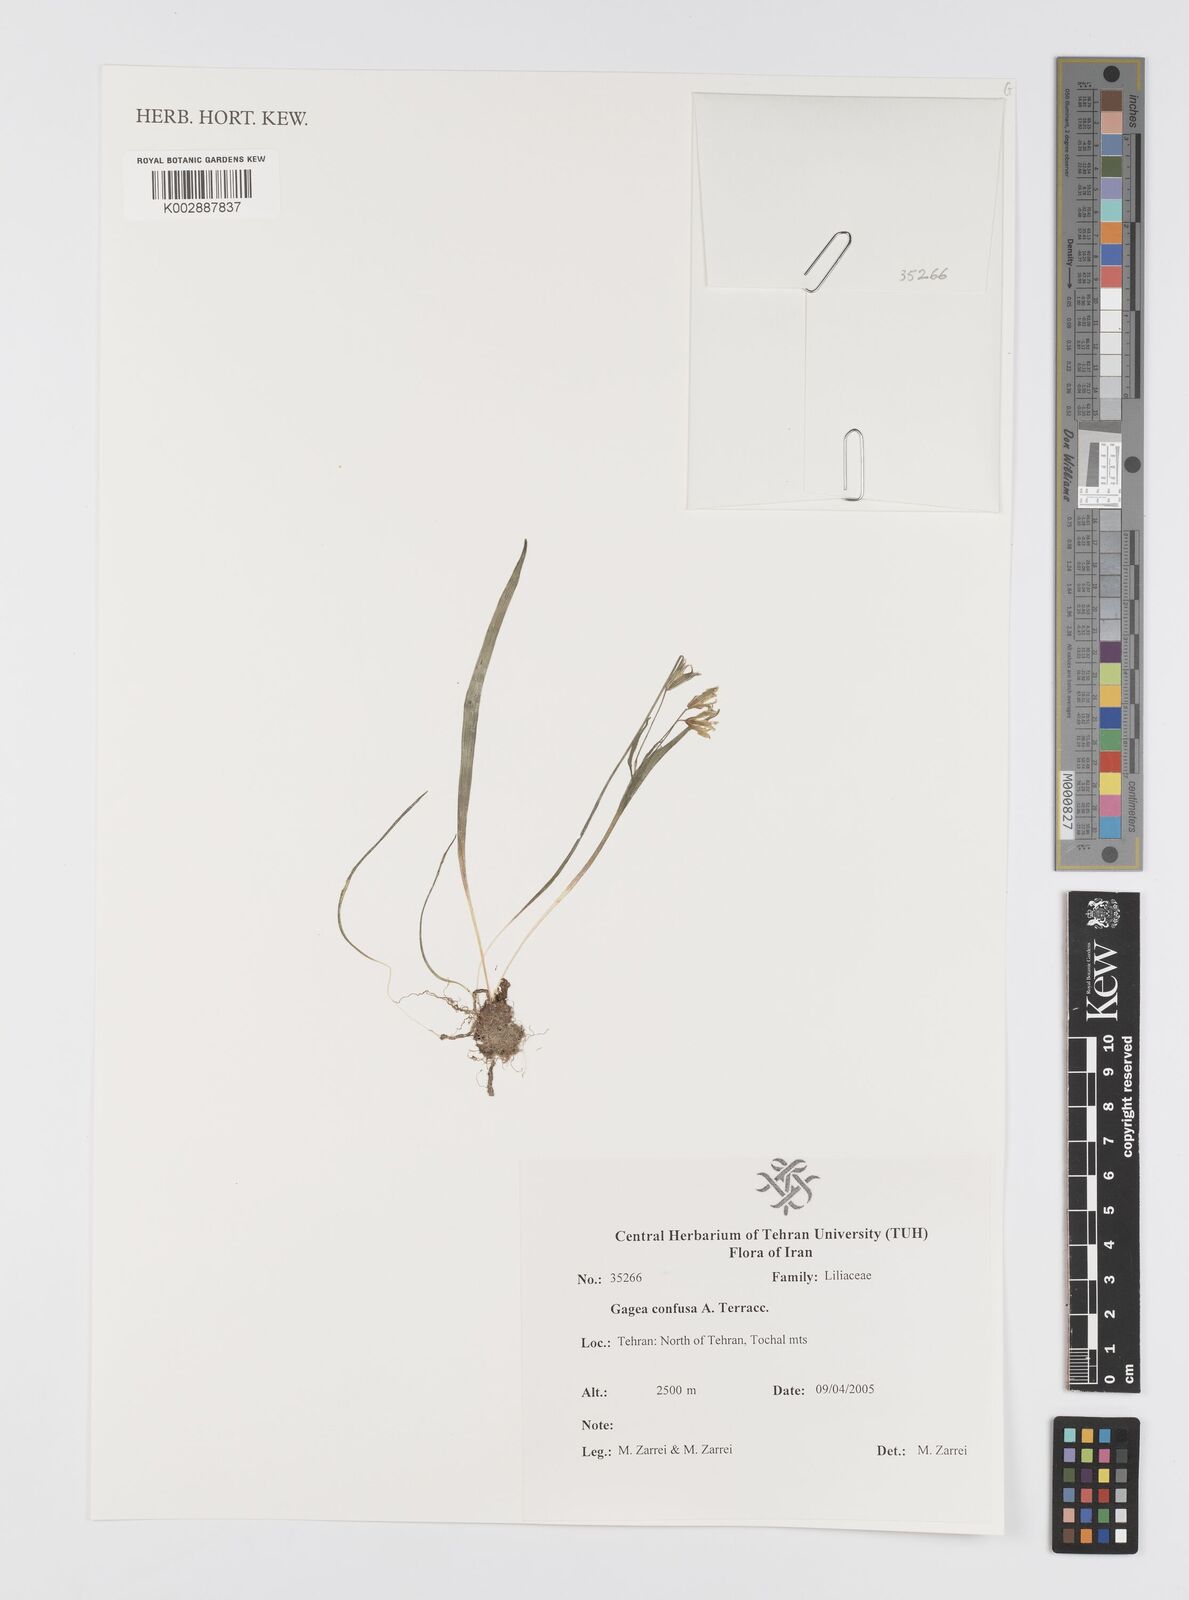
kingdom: Plantae
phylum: Tracheophyta
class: Liliopsida
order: Liliales
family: Liliaceae
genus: Gagea
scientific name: Gagea confusa
